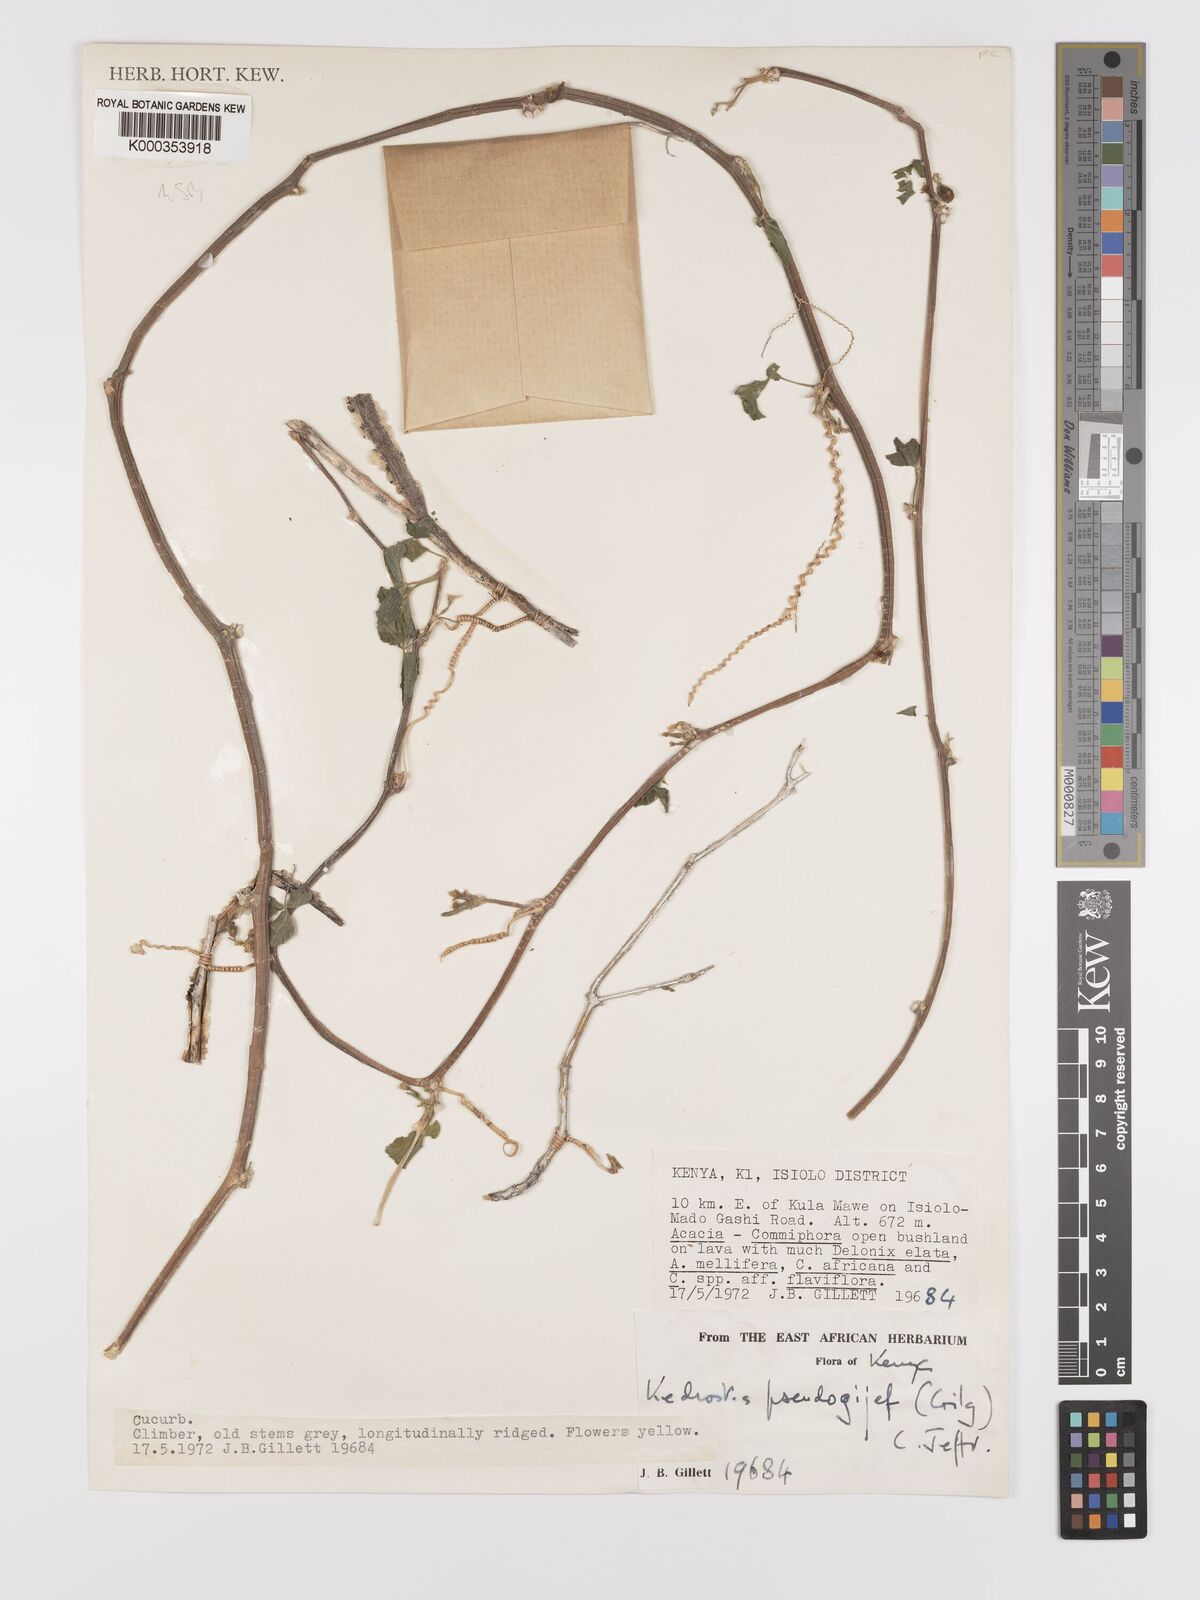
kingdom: Plantae
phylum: Tracheophyta
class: Magnoliopsida
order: Cucurbitales
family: Cucurbitaceae
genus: Kedrostis
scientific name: Kedrostis pseudogijef
